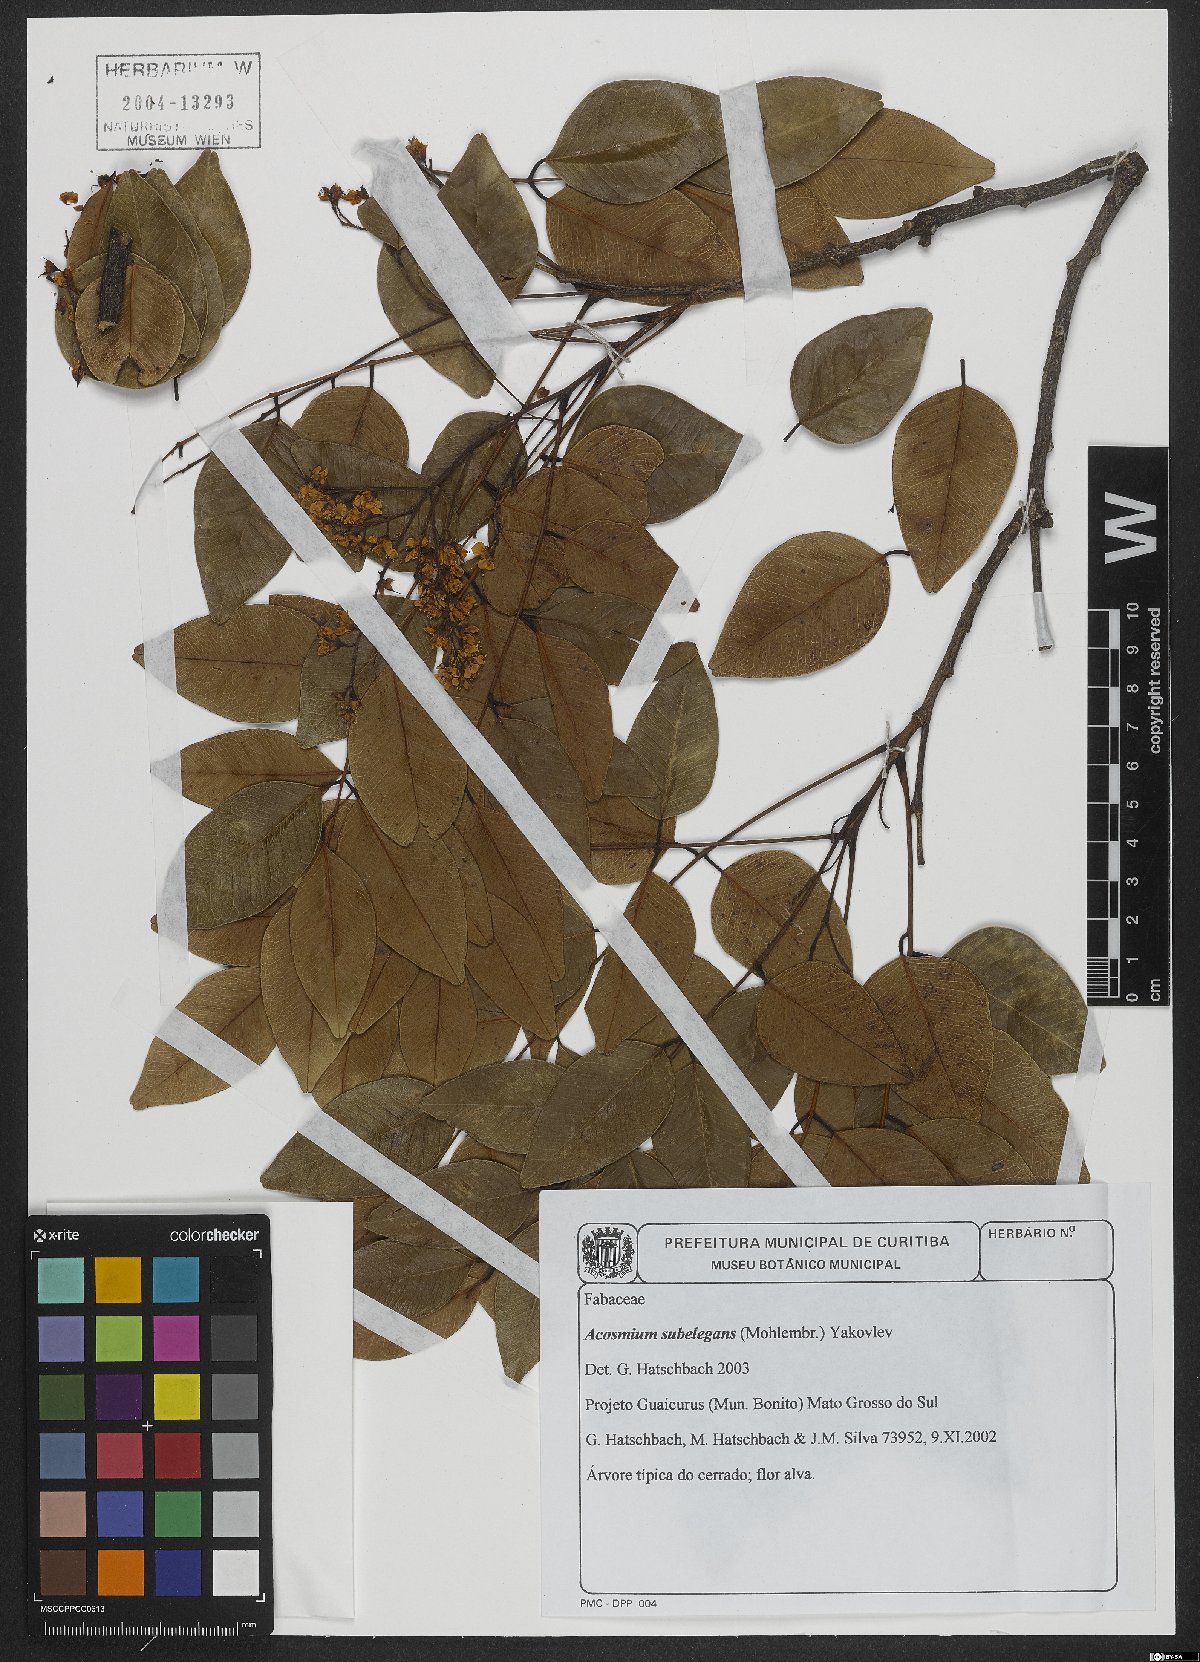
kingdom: Plantae
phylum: Tracheophyta
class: Magnoliopsida
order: Fabales
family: Fabaceae
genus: Leptolobium
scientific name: Leptolobium elegans
